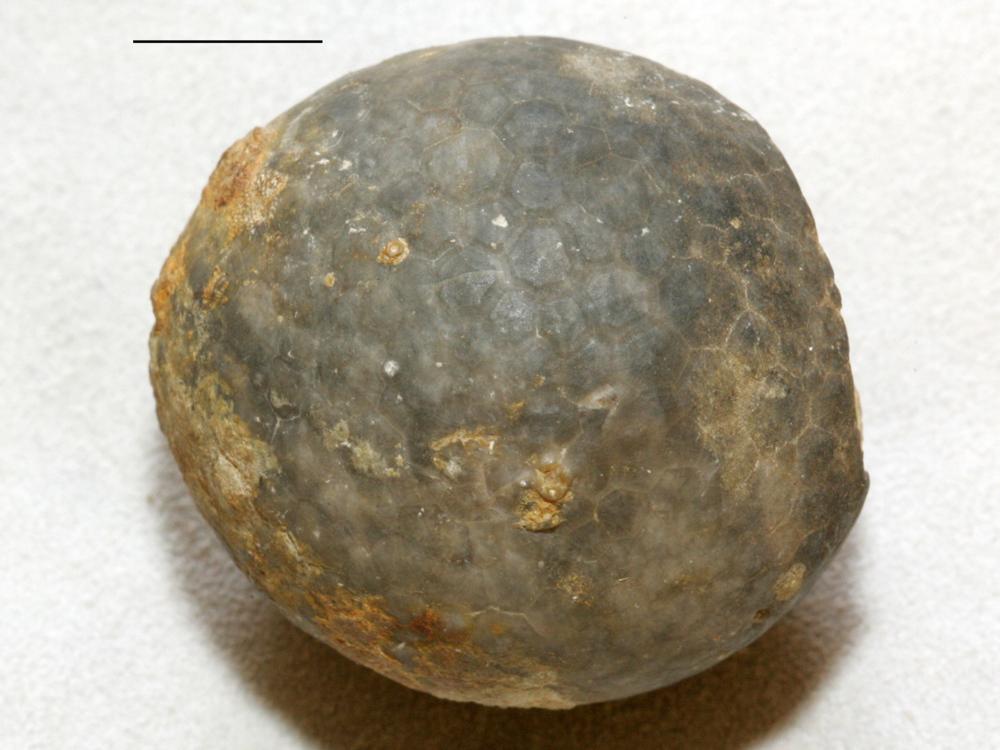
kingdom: Animalia
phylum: Echinodermata
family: Echinosphaeritidae
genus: Echinosphaerites
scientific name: Echinosphaerites Echinus aurantium
